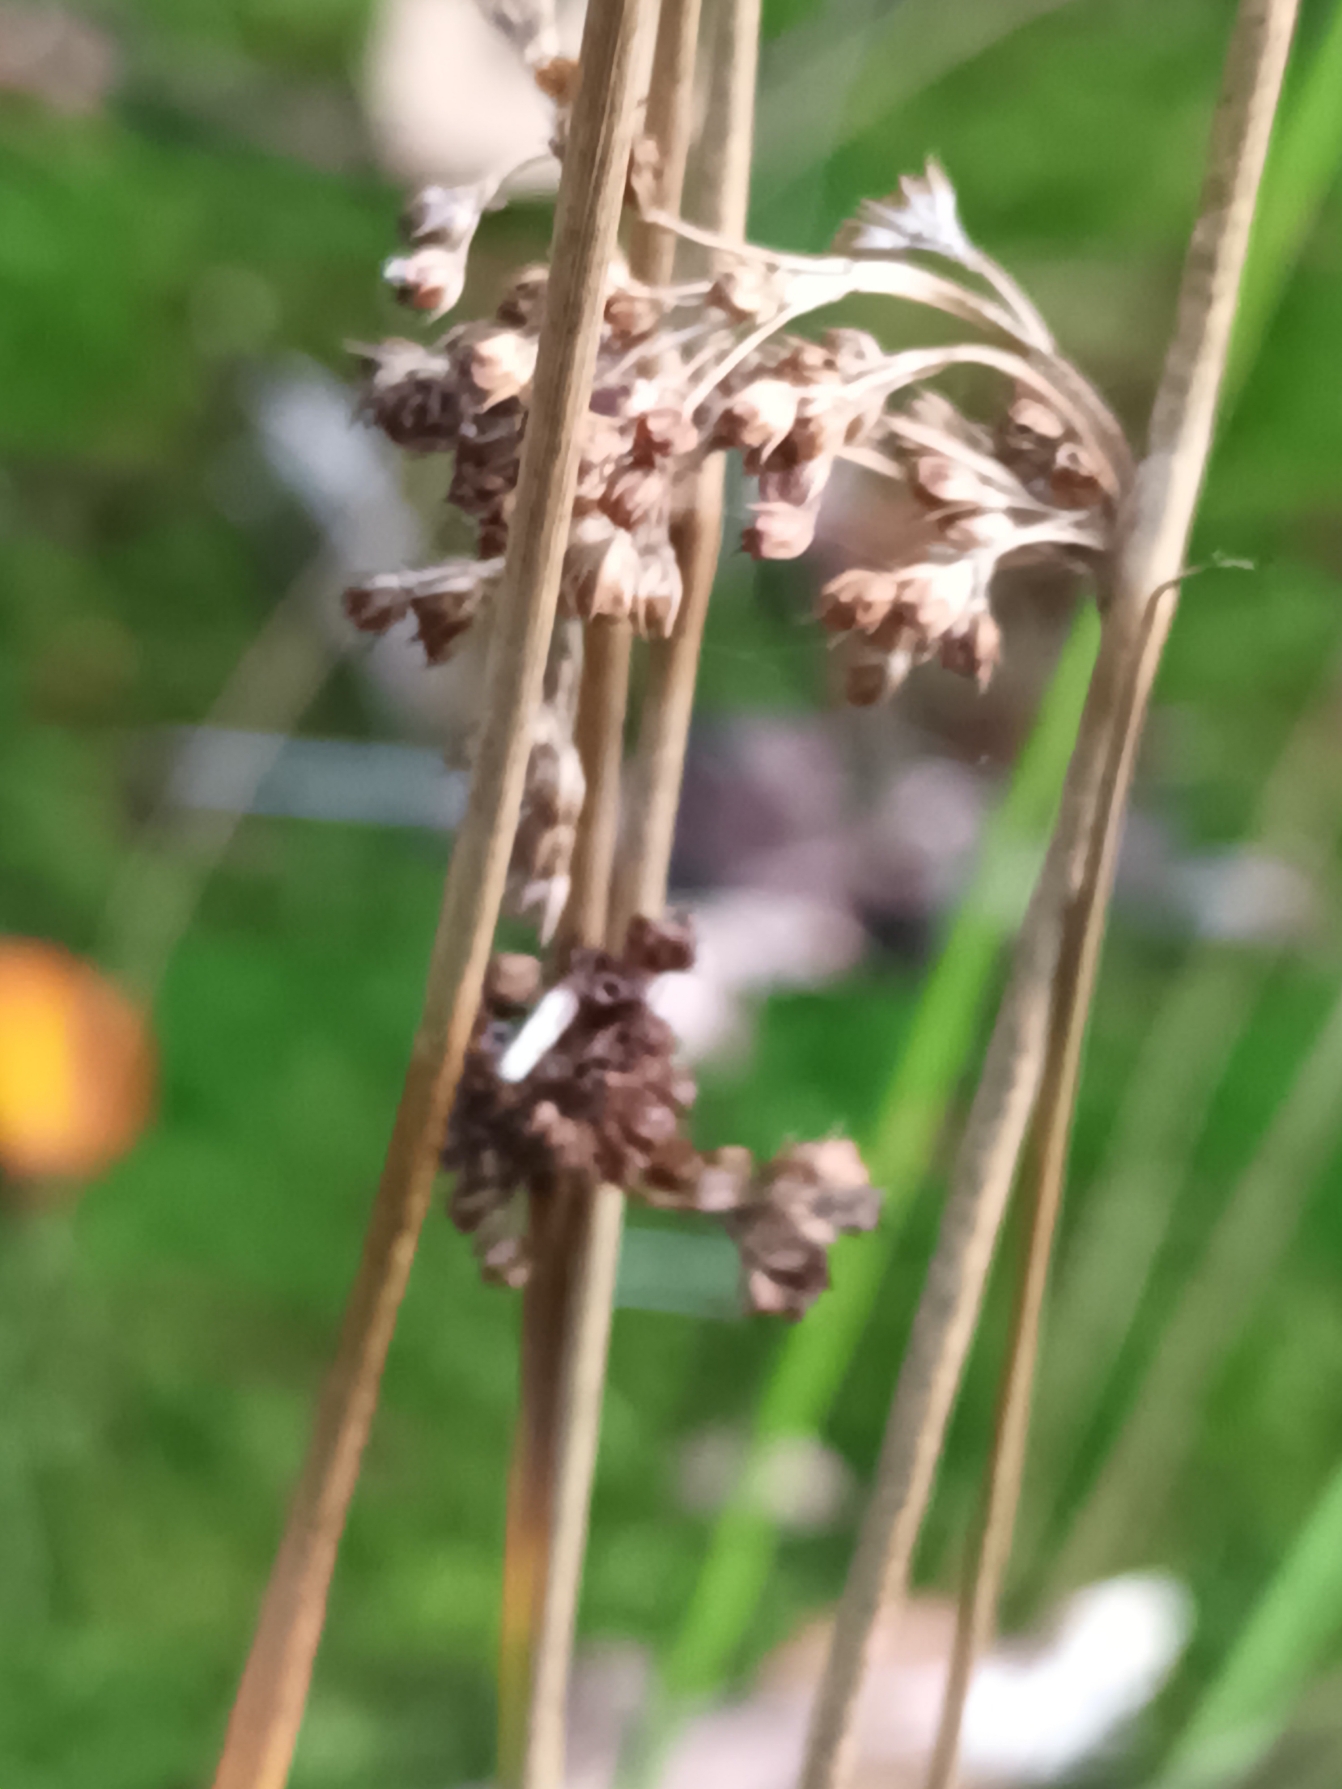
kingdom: Plantae
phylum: Tracheophyta
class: Liliopsida
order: Poales
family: Juncaceae
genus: Juncus
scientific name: Juncus effusus
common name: Lyse-siv
